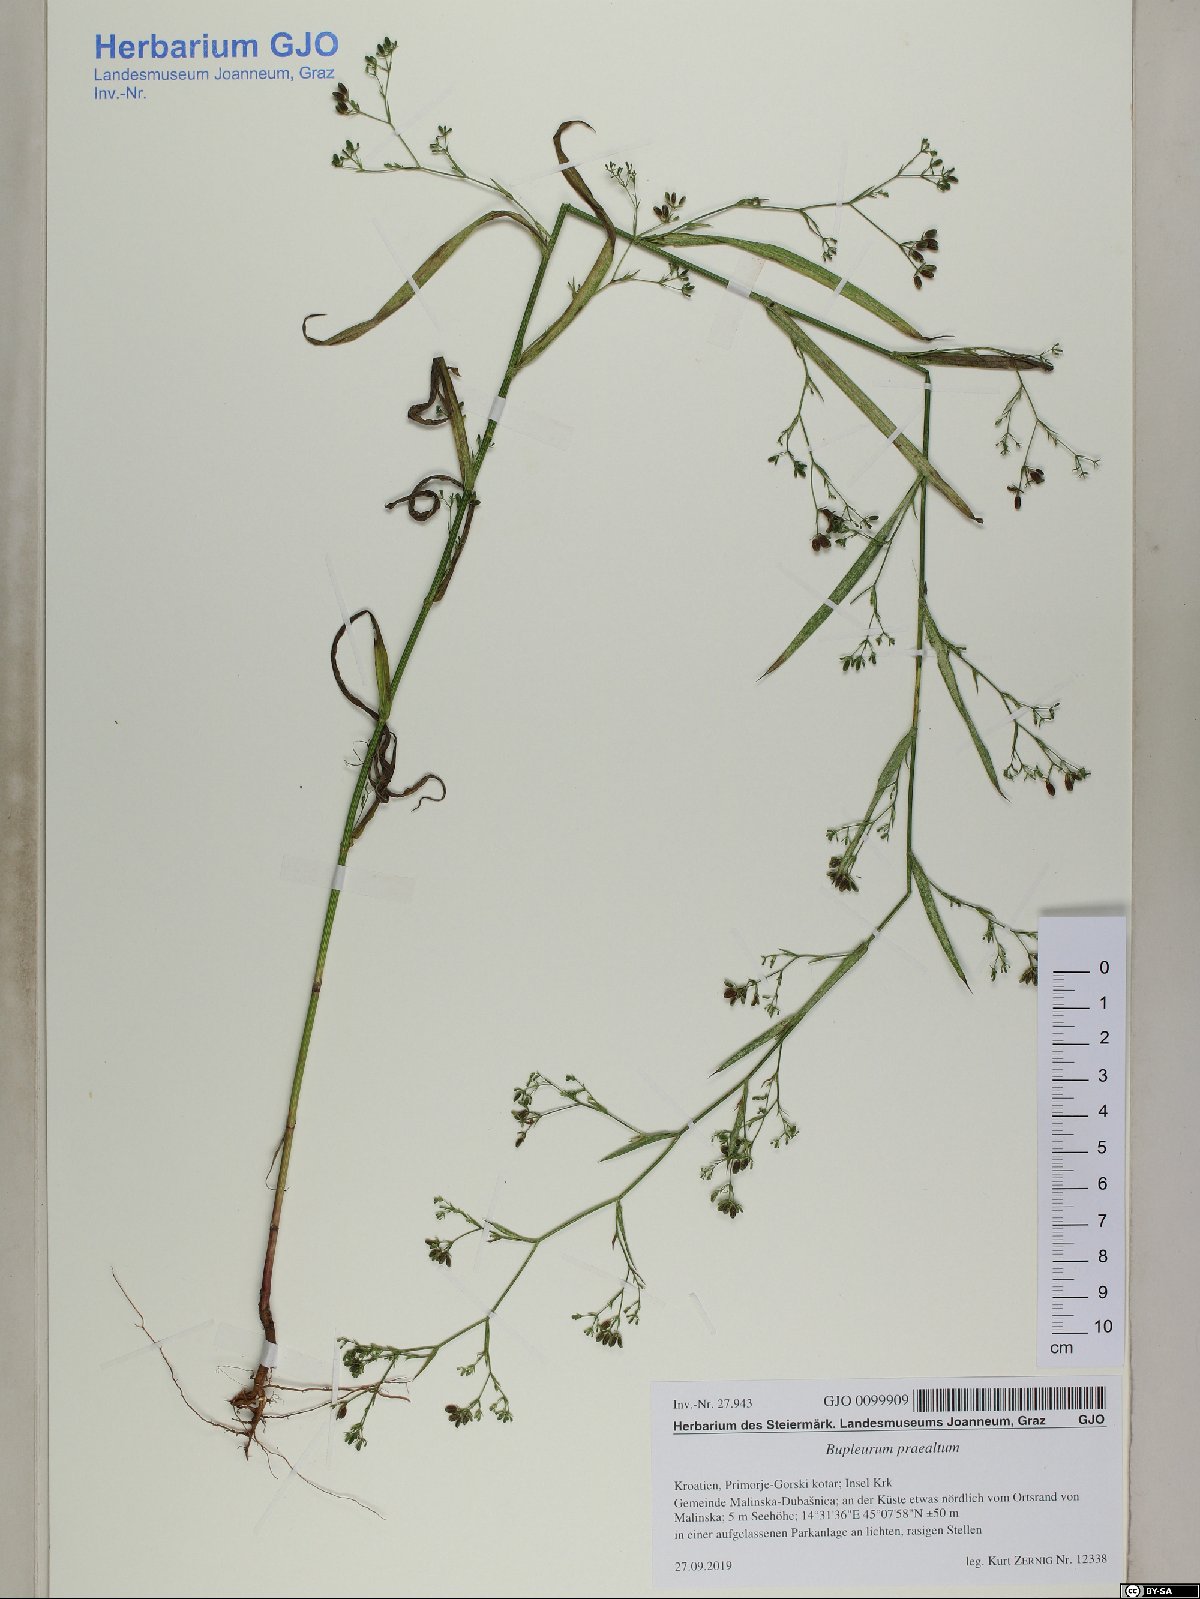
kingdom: Plantae
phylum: Tracheophyta
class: Magnoliopsida
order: Apiales
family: Apiaceae
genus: Bupleurum
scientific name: Bupleurum praealtum
